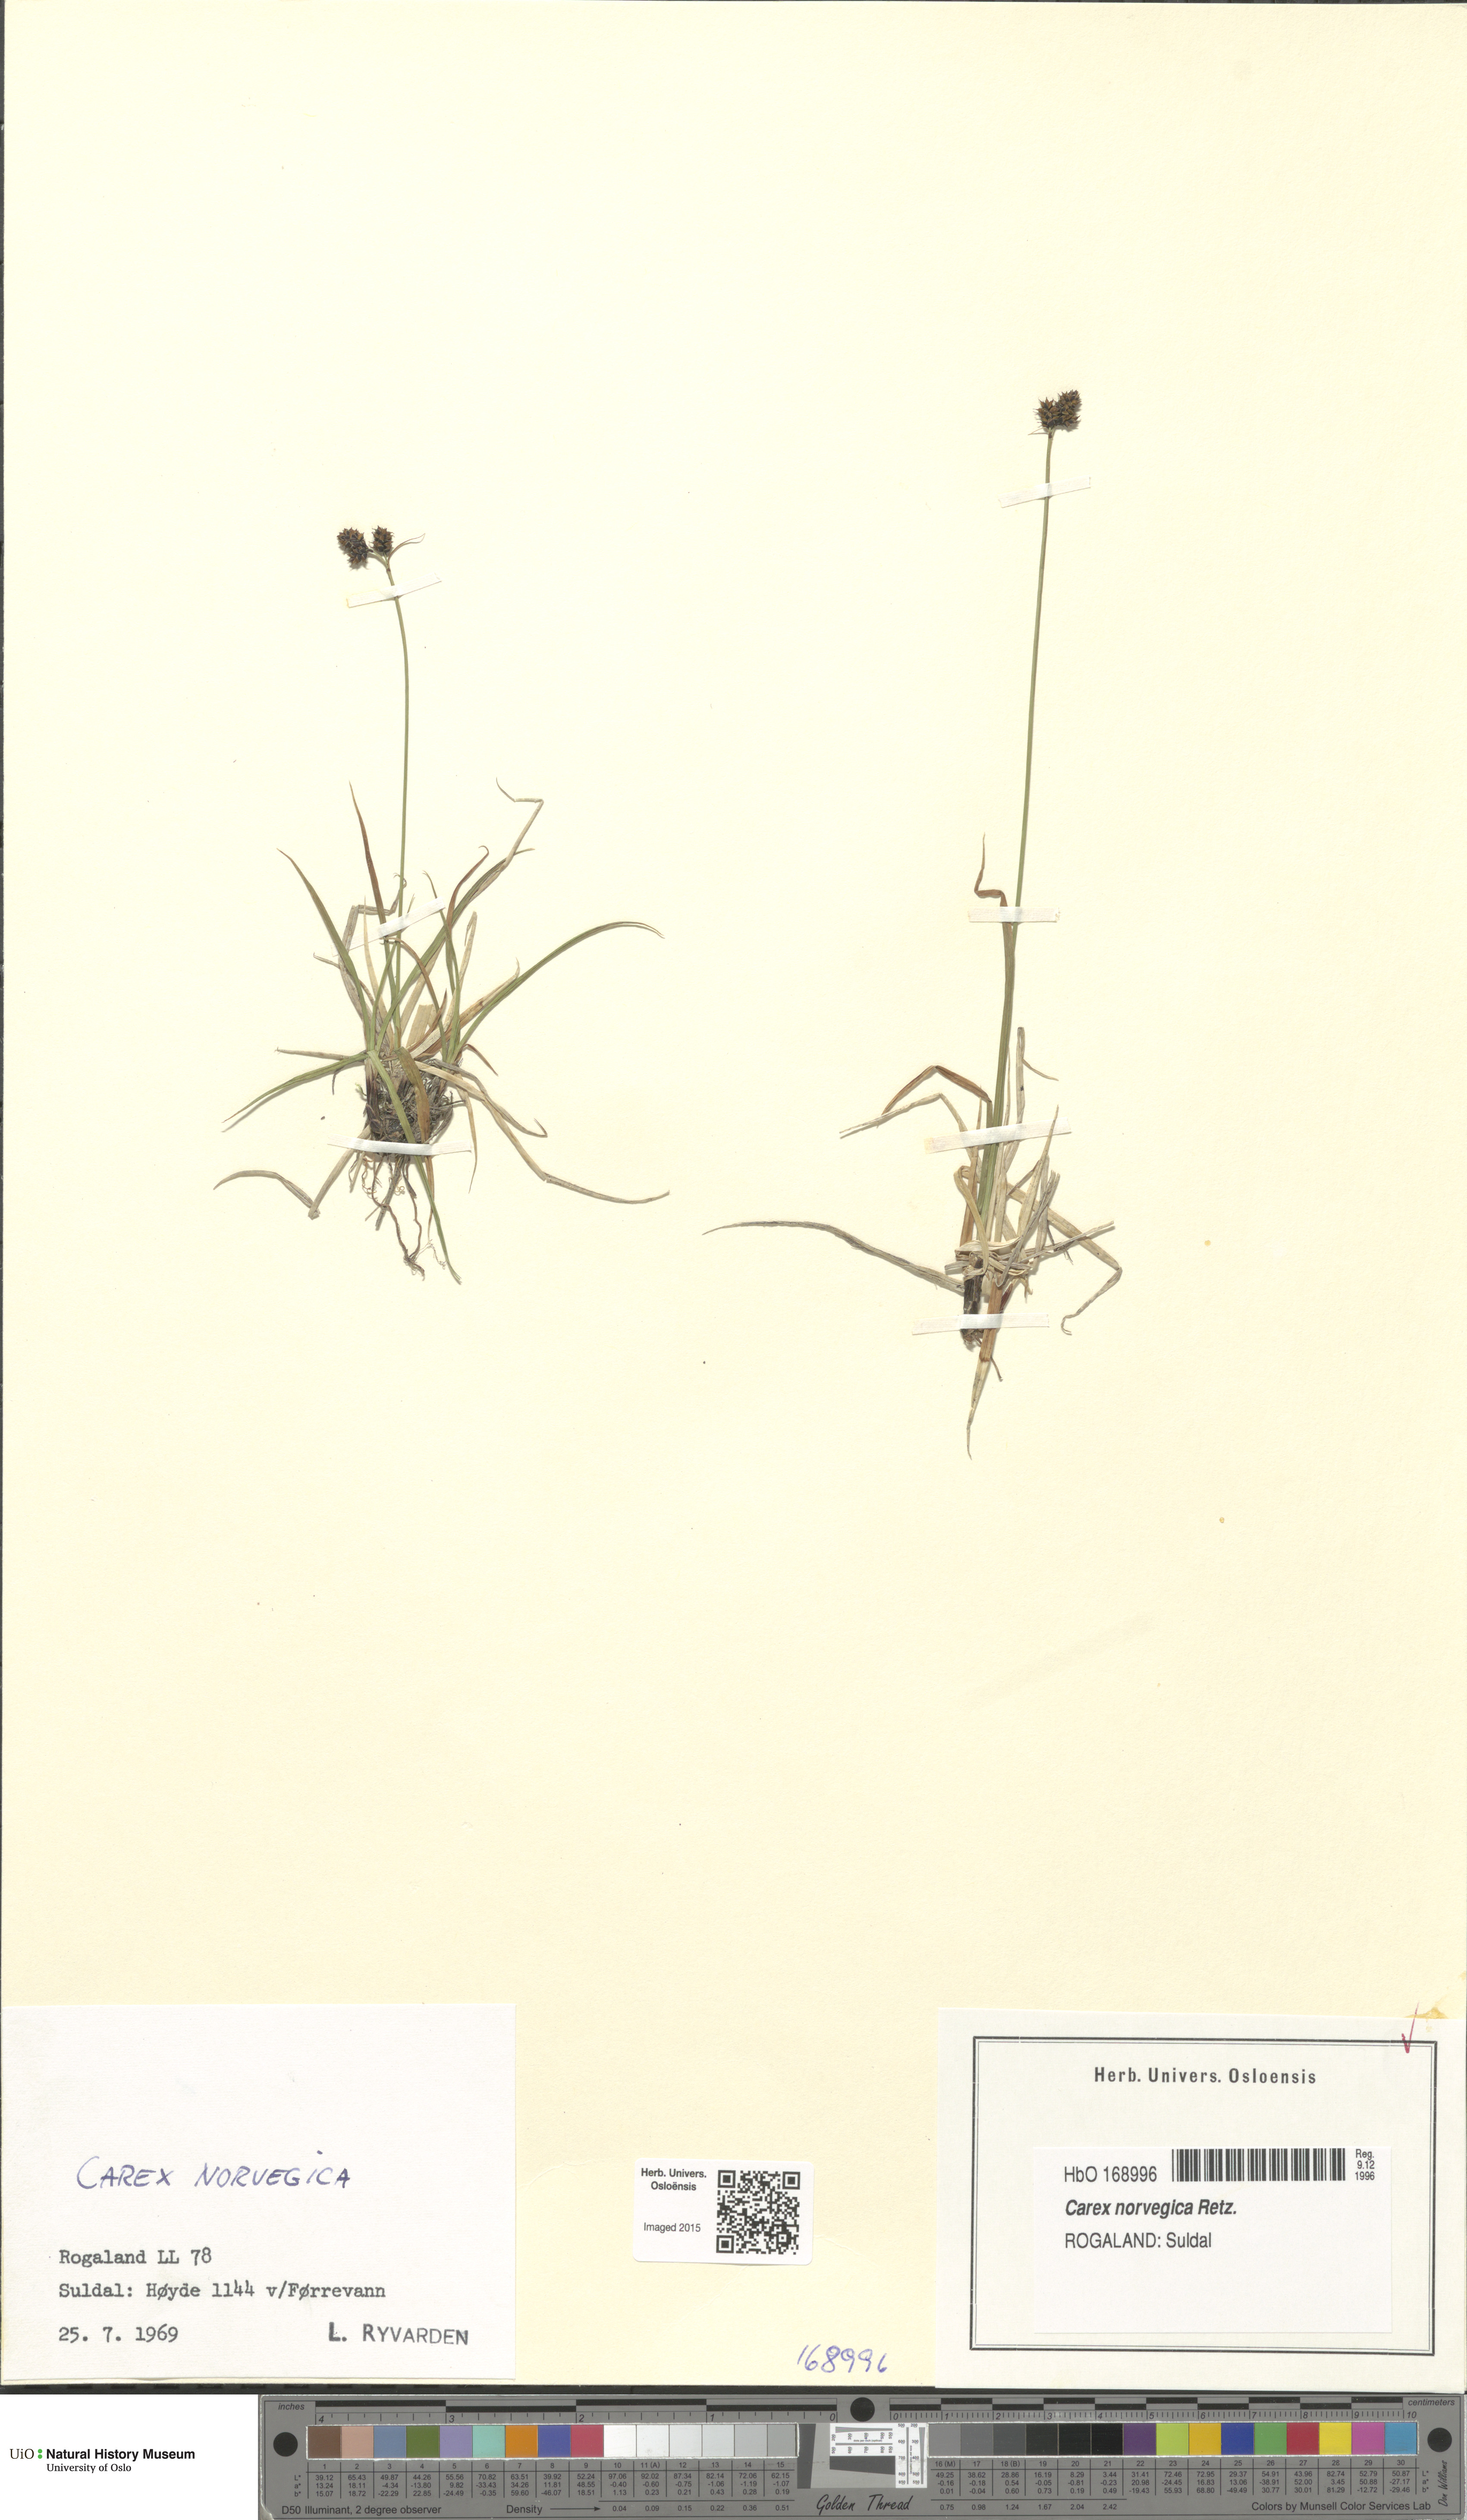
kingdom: Plantae
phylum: Tracheophyta
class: Liliopsida
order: Poales
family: Cyperaceae
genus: Carex
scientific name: Carex norvegica
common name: Close-headed alpine-sedge
